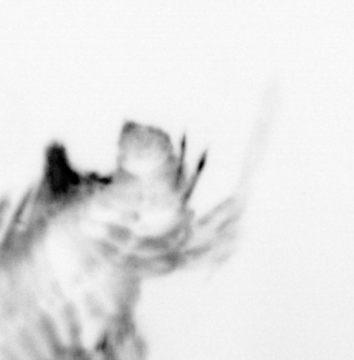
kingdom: Animalia
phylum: Arthropoda
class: Copepoda
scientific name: Copepoda
